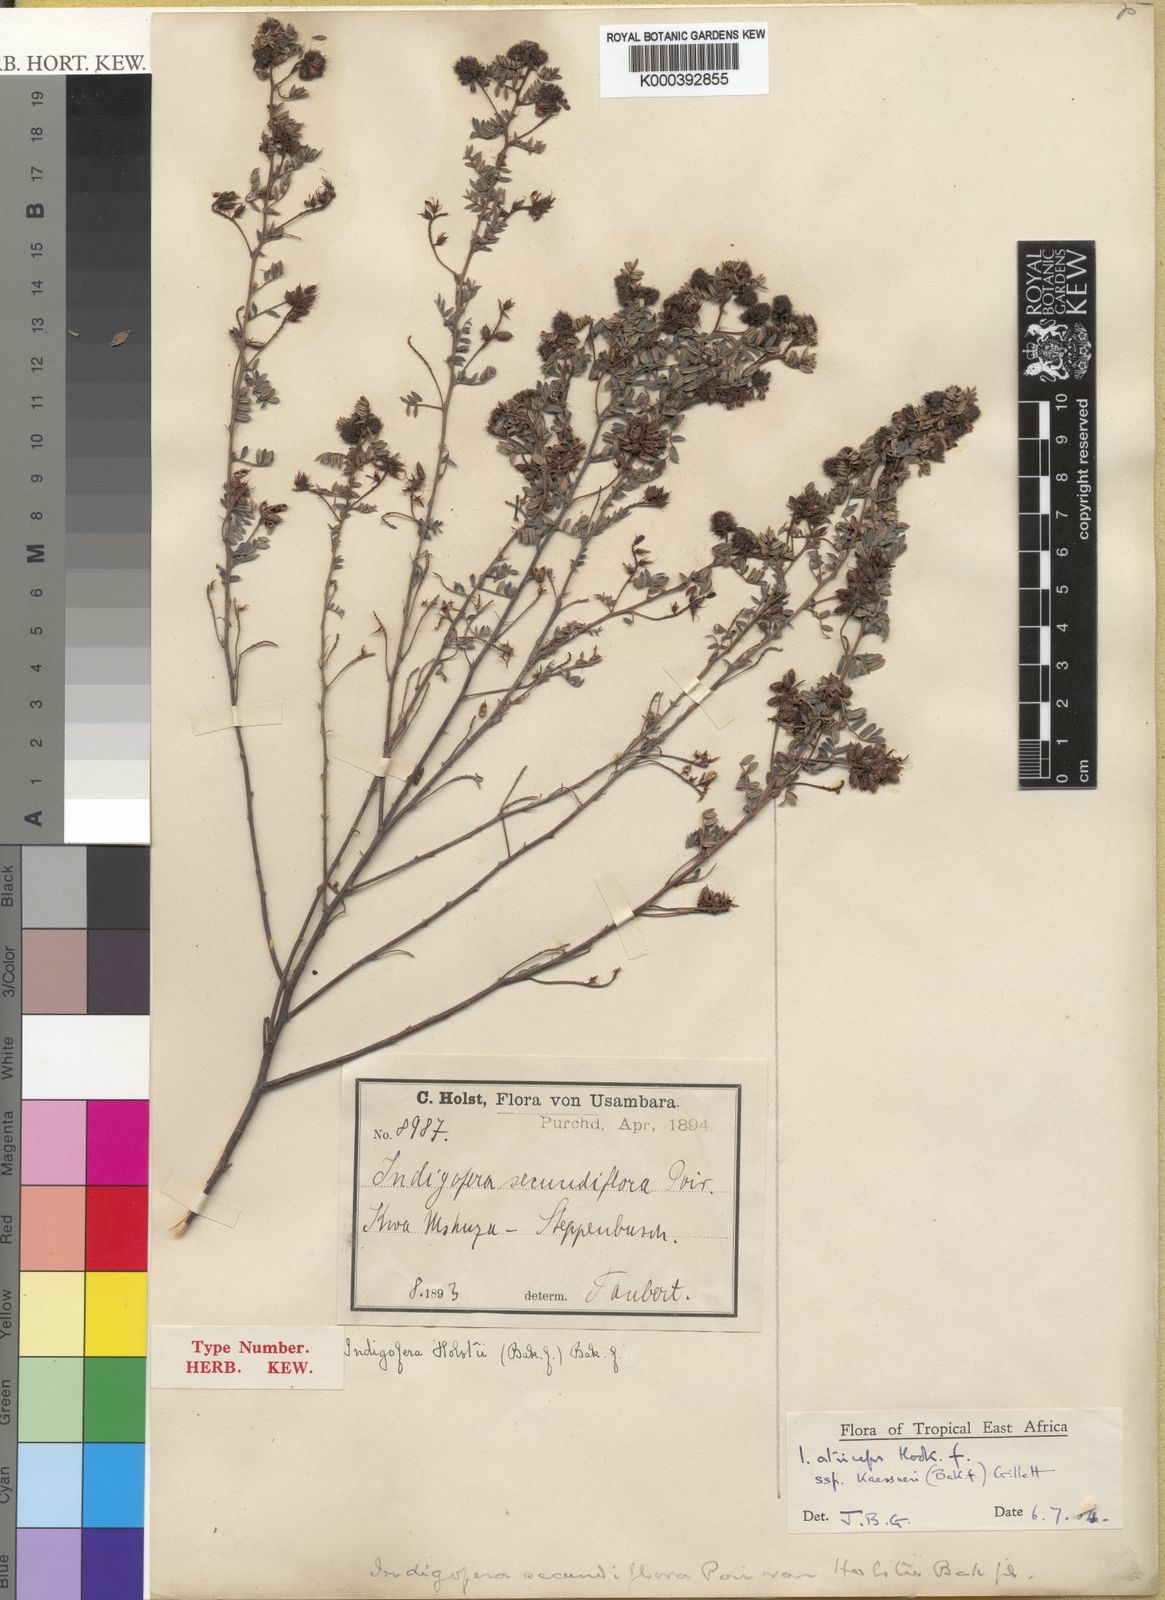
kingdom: Plantae
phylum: Tracheophyta
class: Magnoliopsida
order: Fabales
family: Fabaceae
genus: Indigofera
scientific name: Indigofera atriceps
